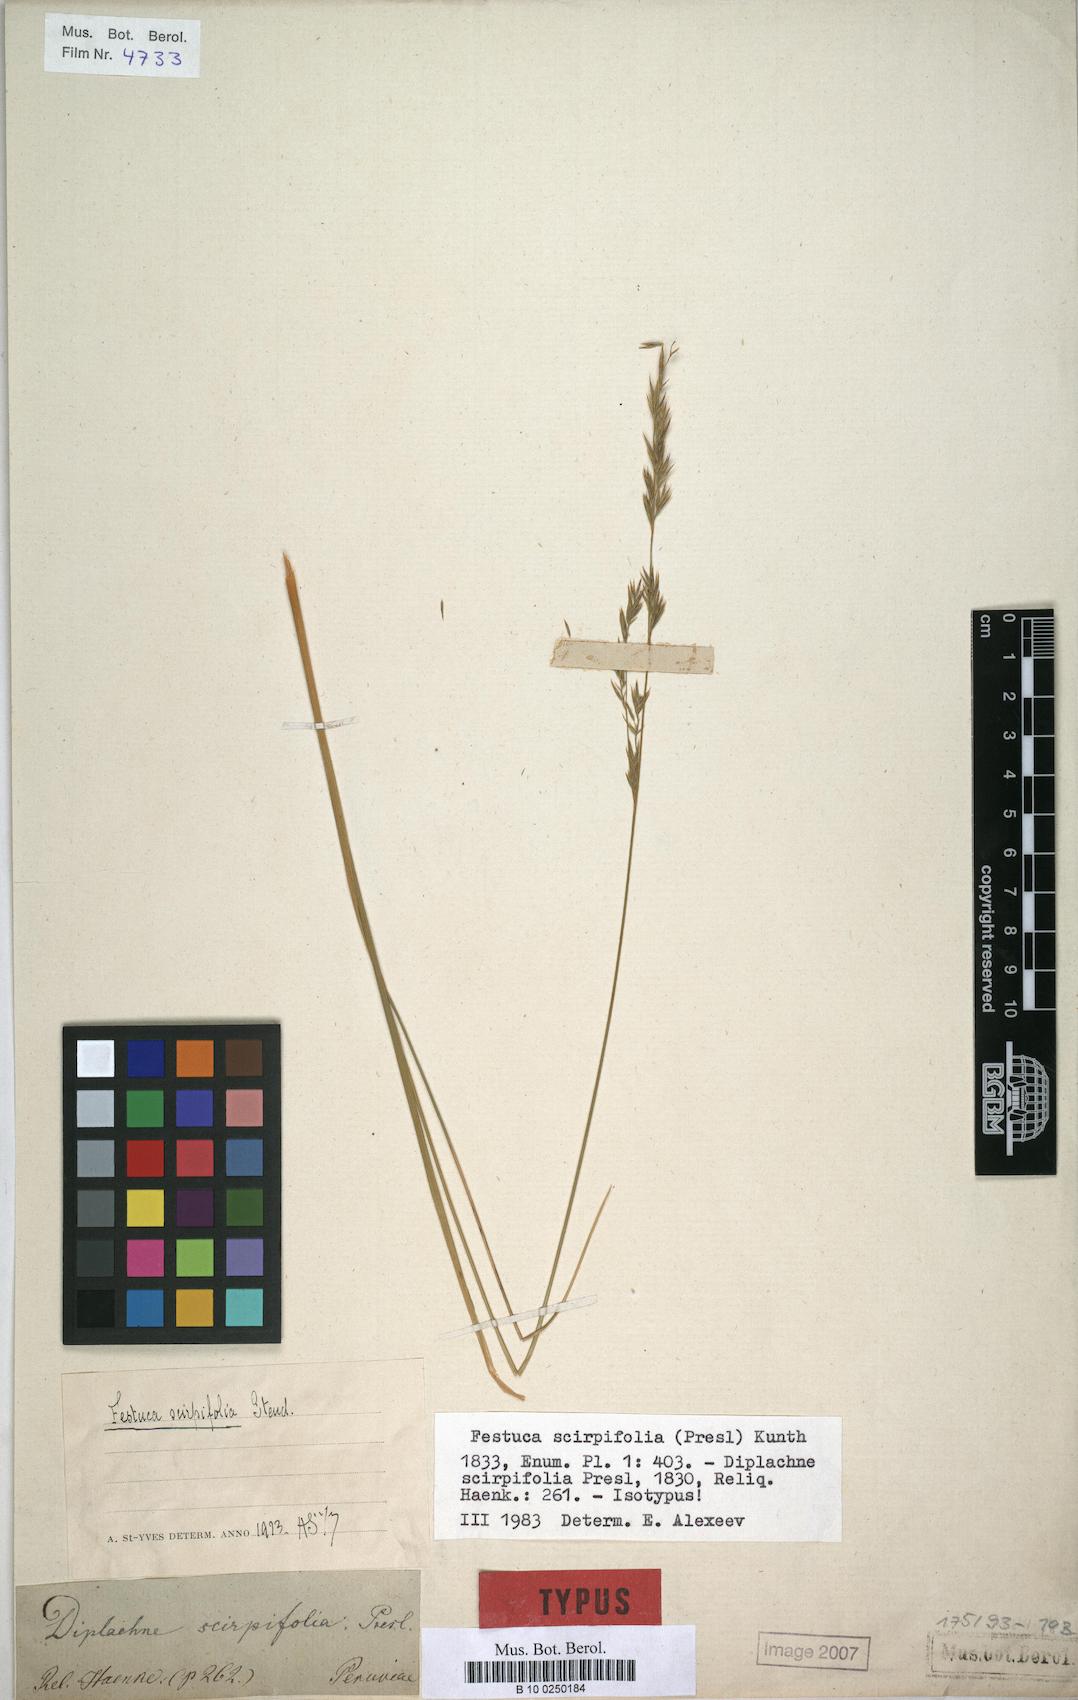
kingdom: Plantae
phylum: Tracheophyta
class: Liliopsida
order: Poales
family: Poaceae
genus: Festuca
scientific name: Festuca dolichophylla
